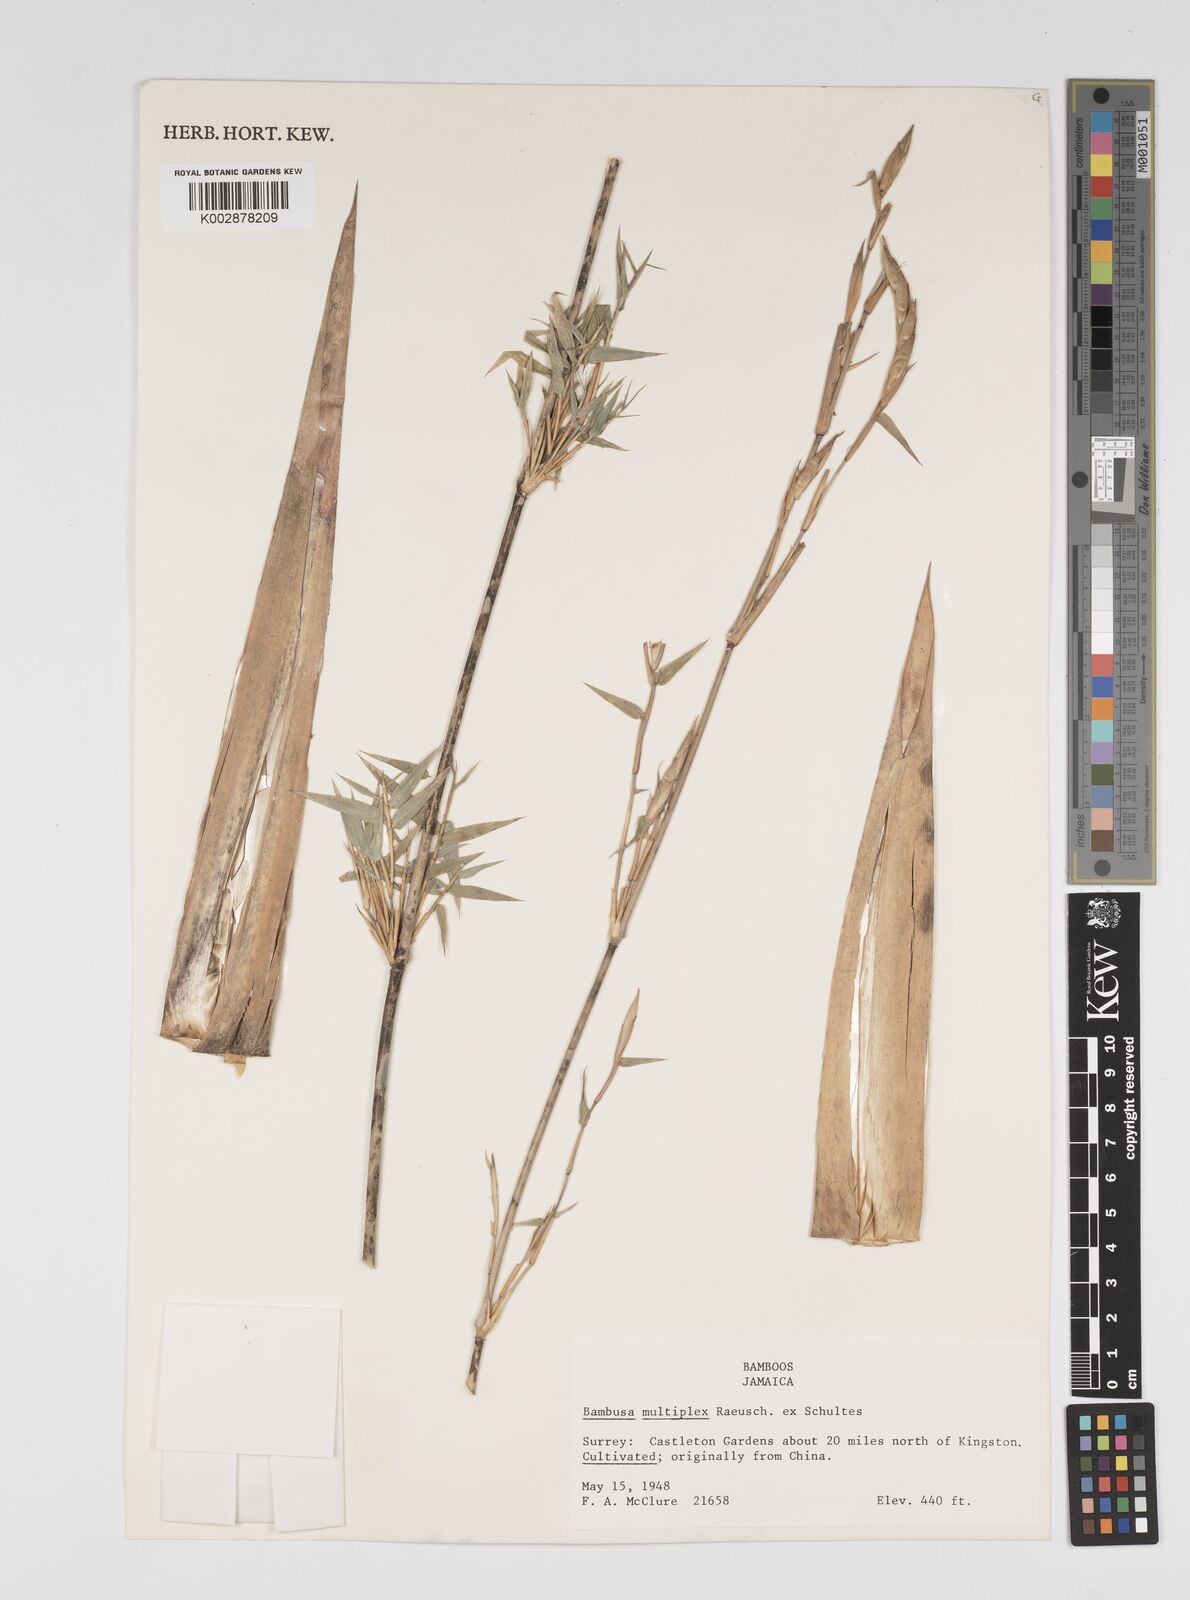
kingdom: Plantae
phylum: Tracheophyta
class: Liliopsida
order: Poales
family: Poaceae
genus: Bambusa
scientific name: Bambusa multiplex
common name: Hedge bamboo
